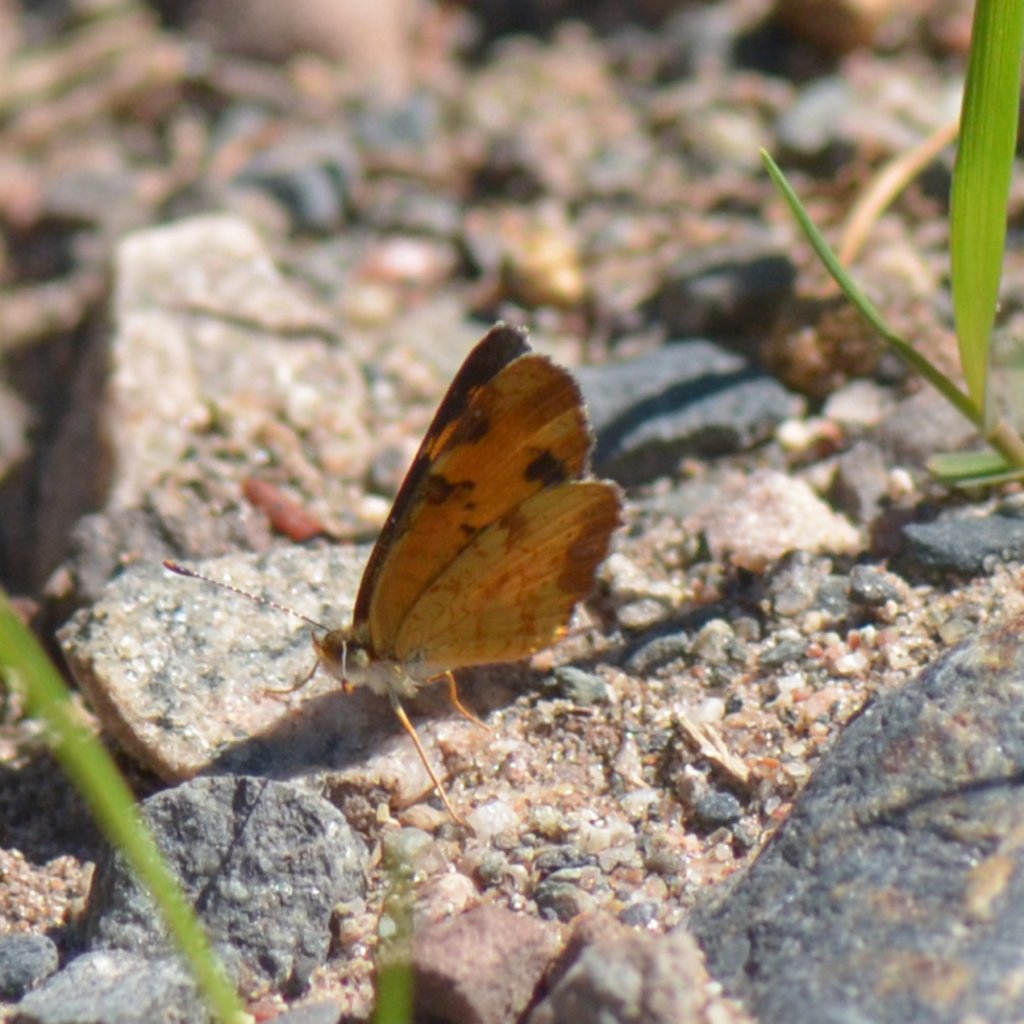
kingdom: Animalia
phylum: Arthropoda
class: Insecta
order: Lepidoptera
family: Nymphalidae
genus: Phyciodes
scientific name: Phyciodes tharos
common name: Northern Crescent
